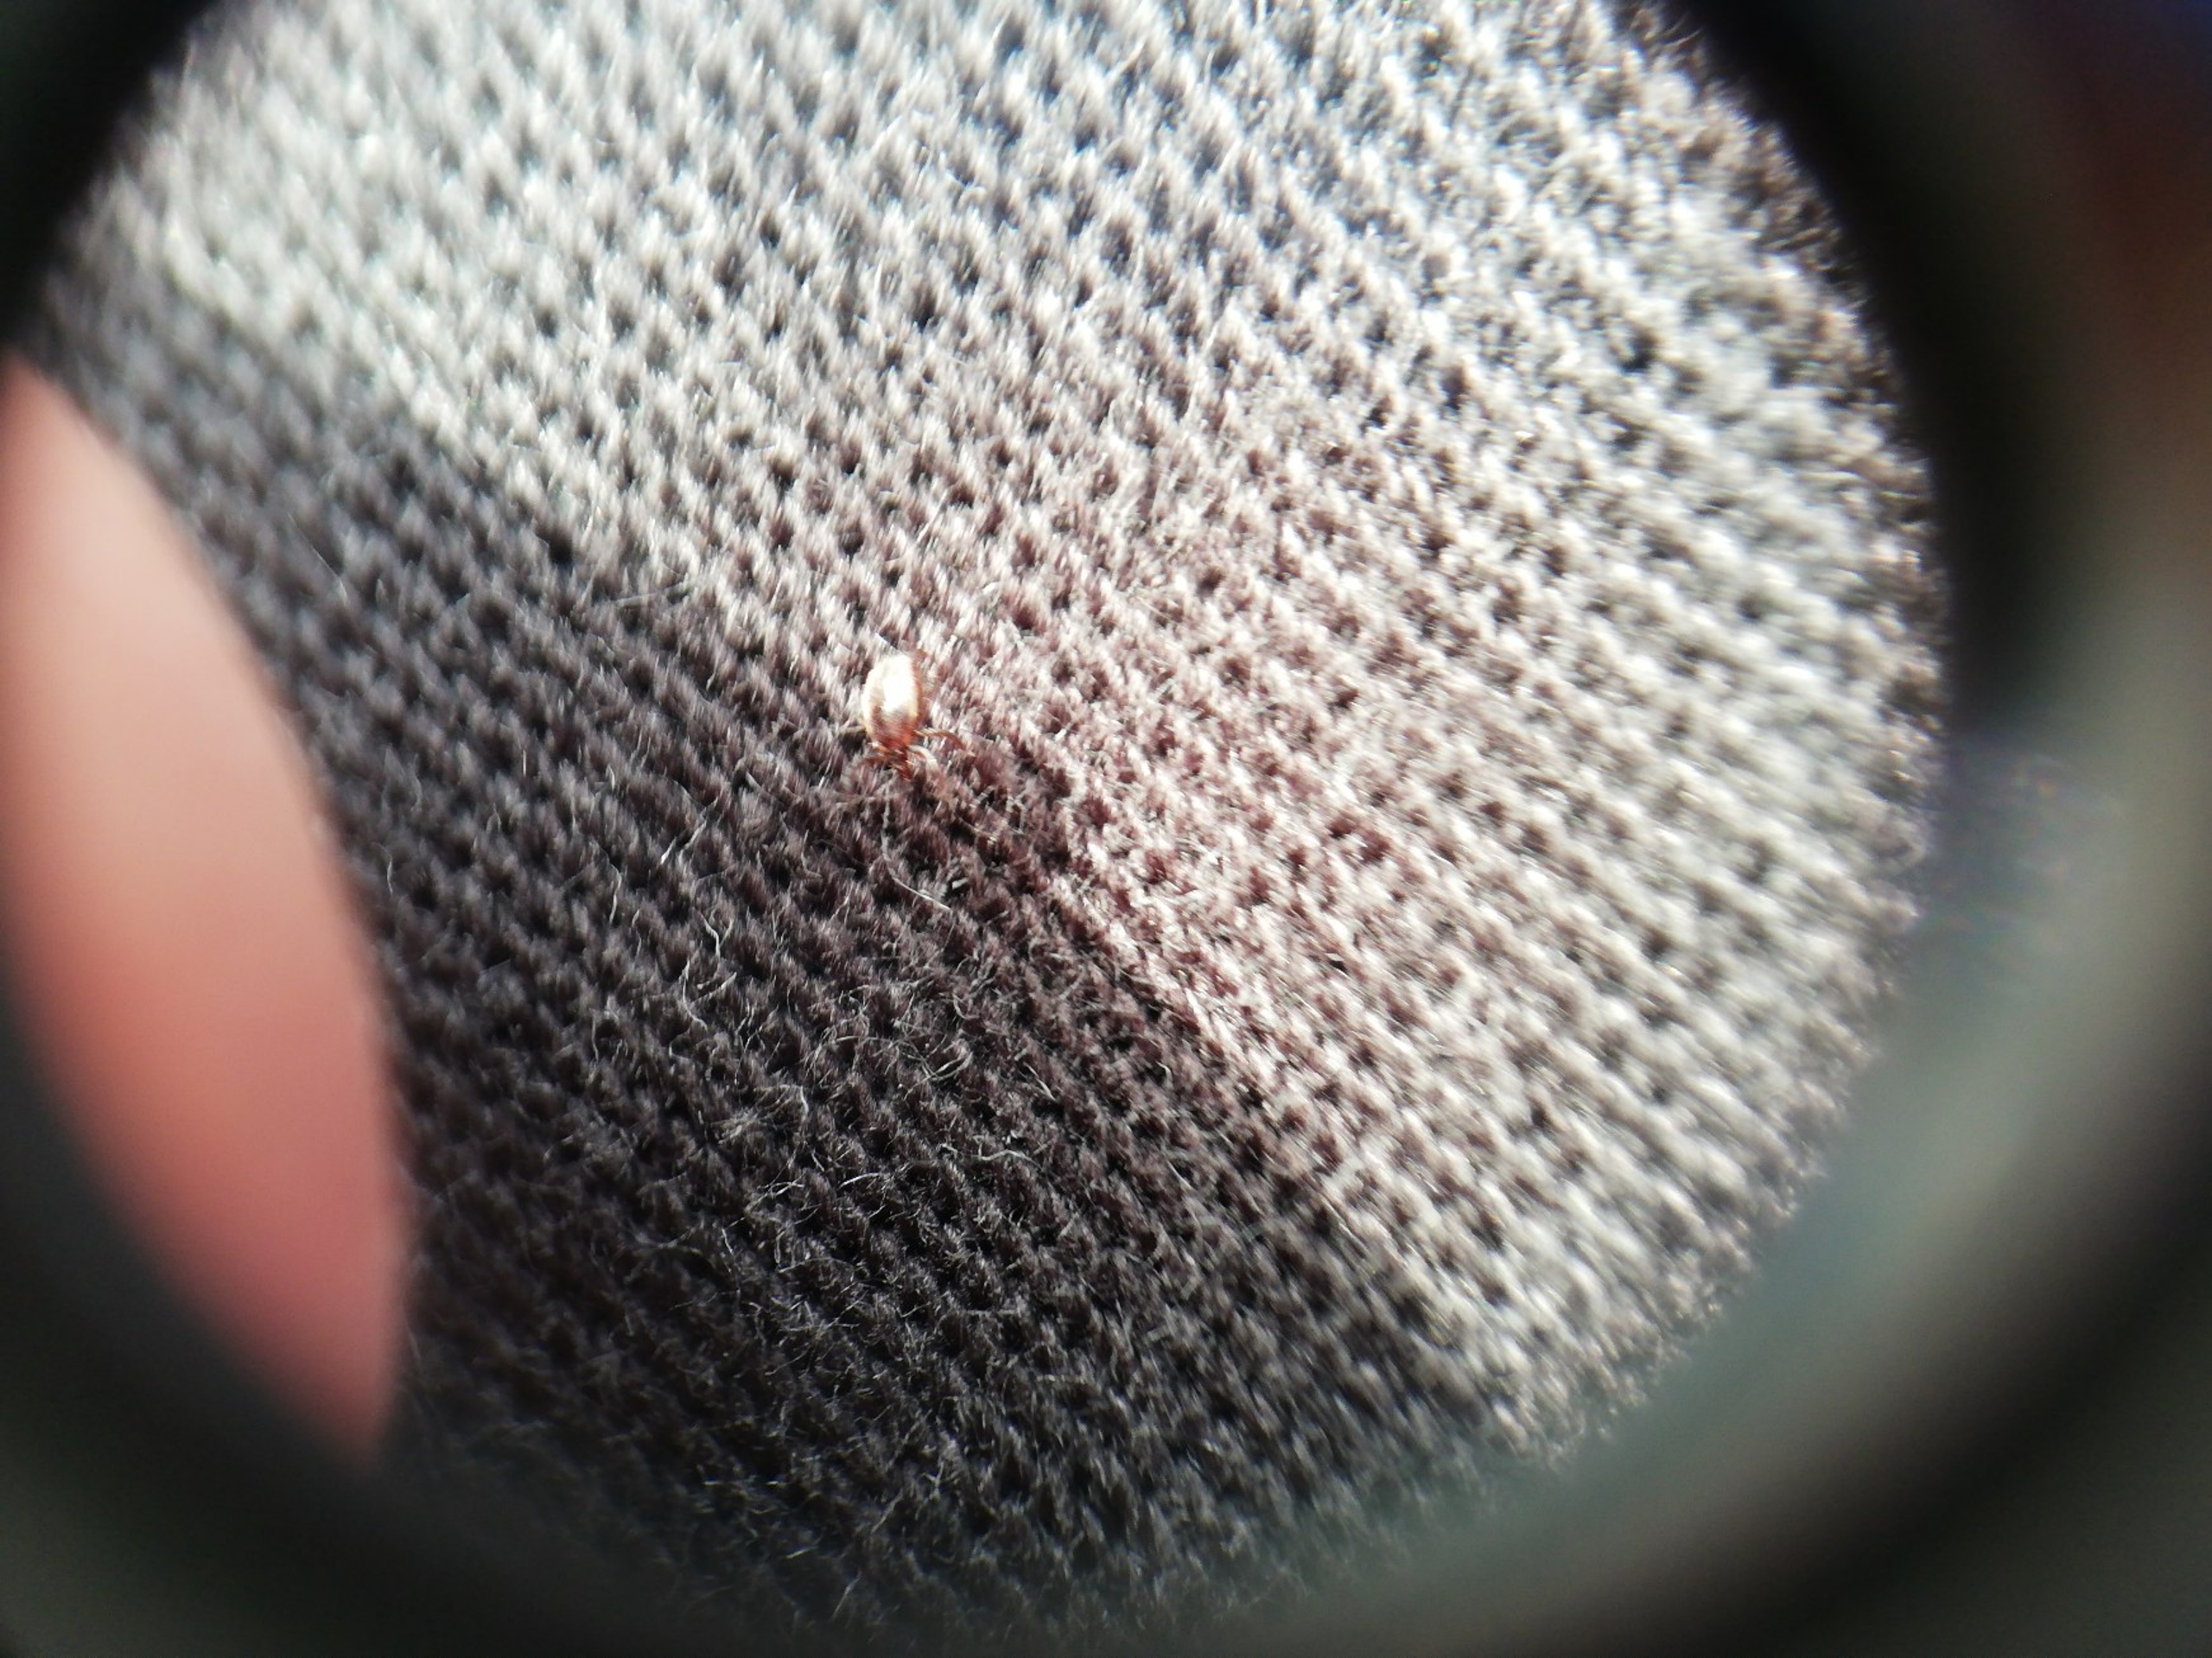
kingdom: Animalia
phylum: Arthropoda
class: Arachnida
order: Ixodida
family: Ixodidae
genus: Ixodes
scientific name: Ixodes ricinus
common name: Skovflåt
